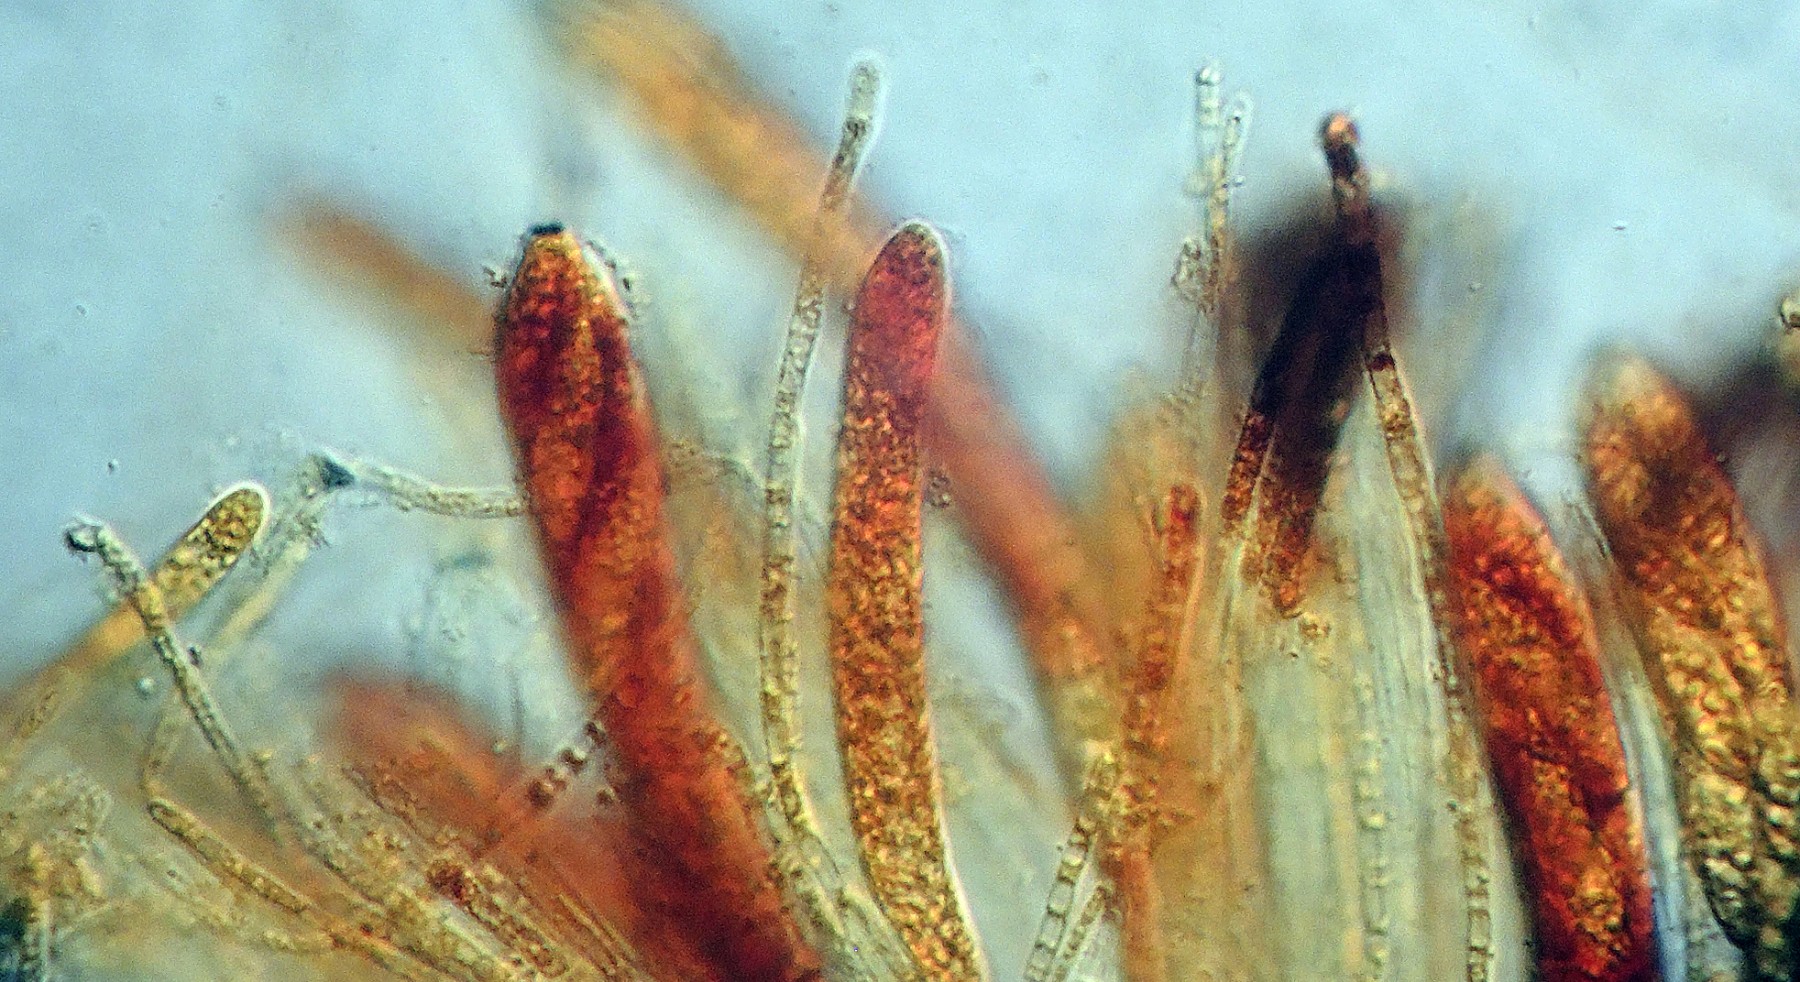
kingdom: Fungi
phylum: Ascomycota
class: Leotiomycetes
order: Helotiales
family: Pezizellaceae
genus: Allophylaria
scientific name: Allophylaria macrospora
